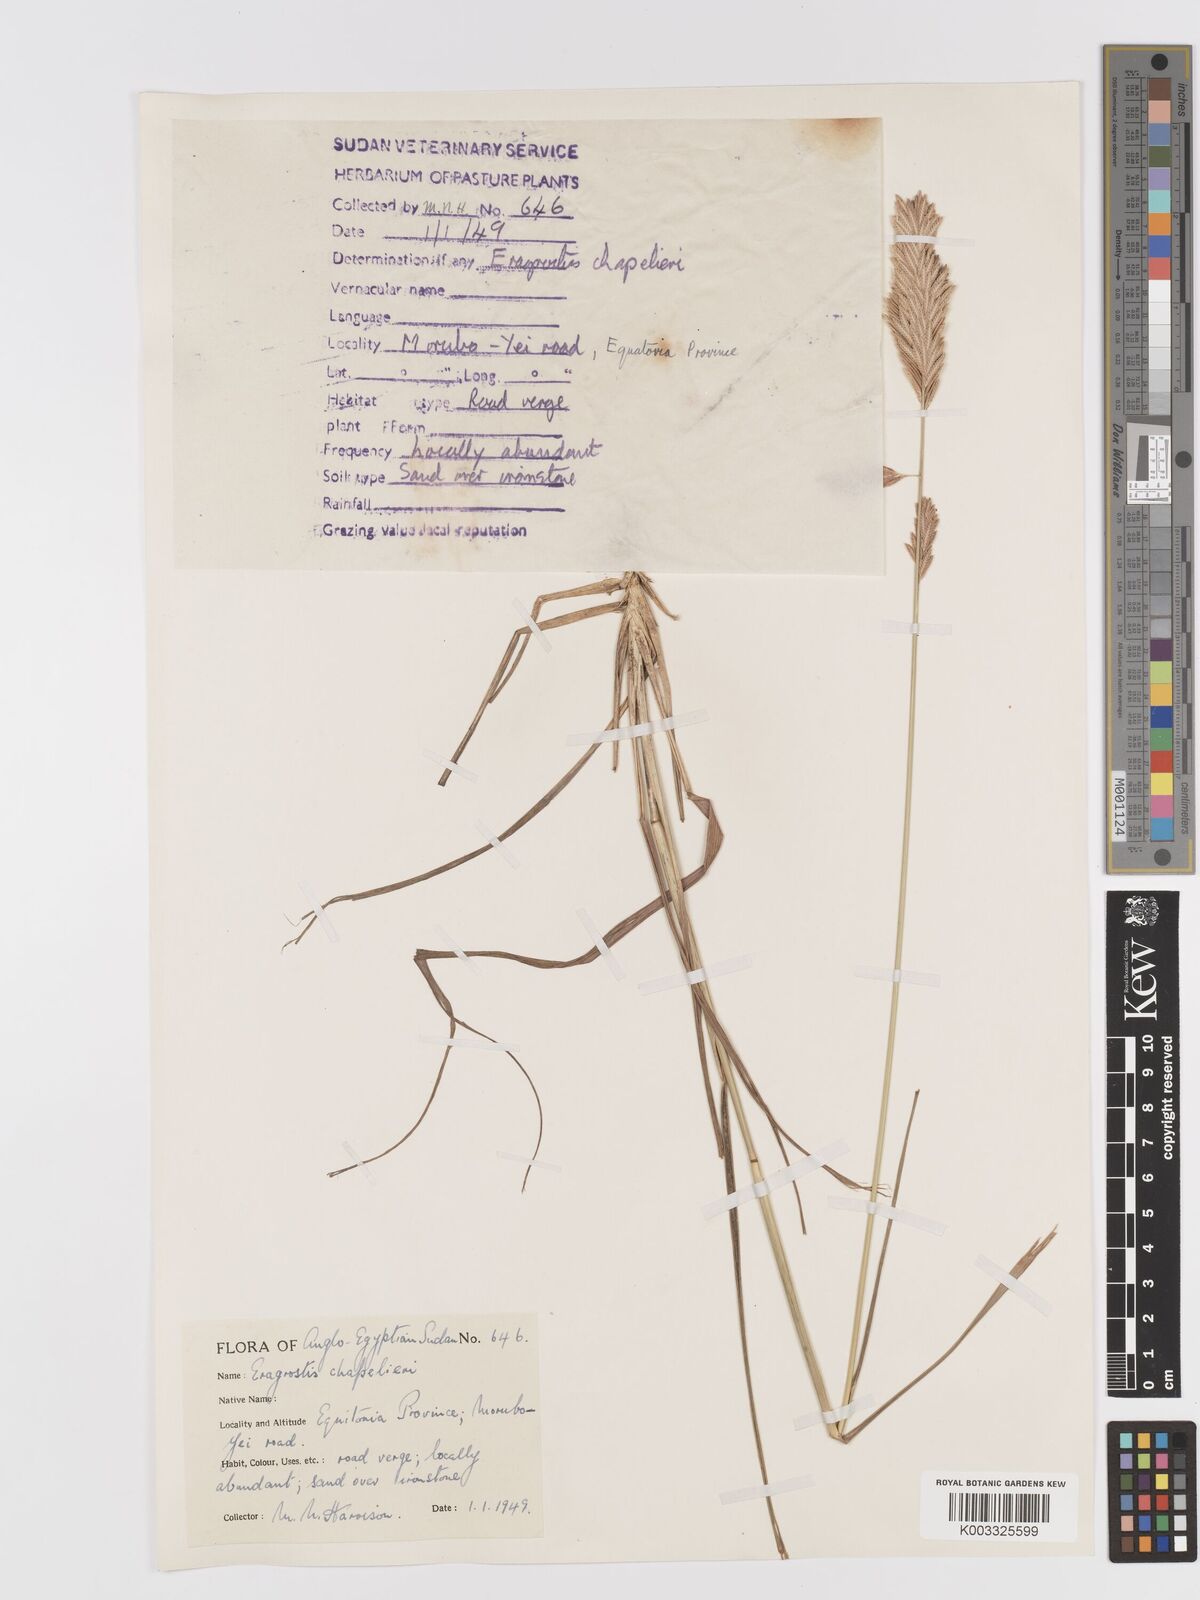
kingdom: Plantae
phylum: Tracheophyta
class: Liliopsida
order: Poales
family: Poaceae
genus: Eragrostis
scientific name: Eragrostis chapelieri
